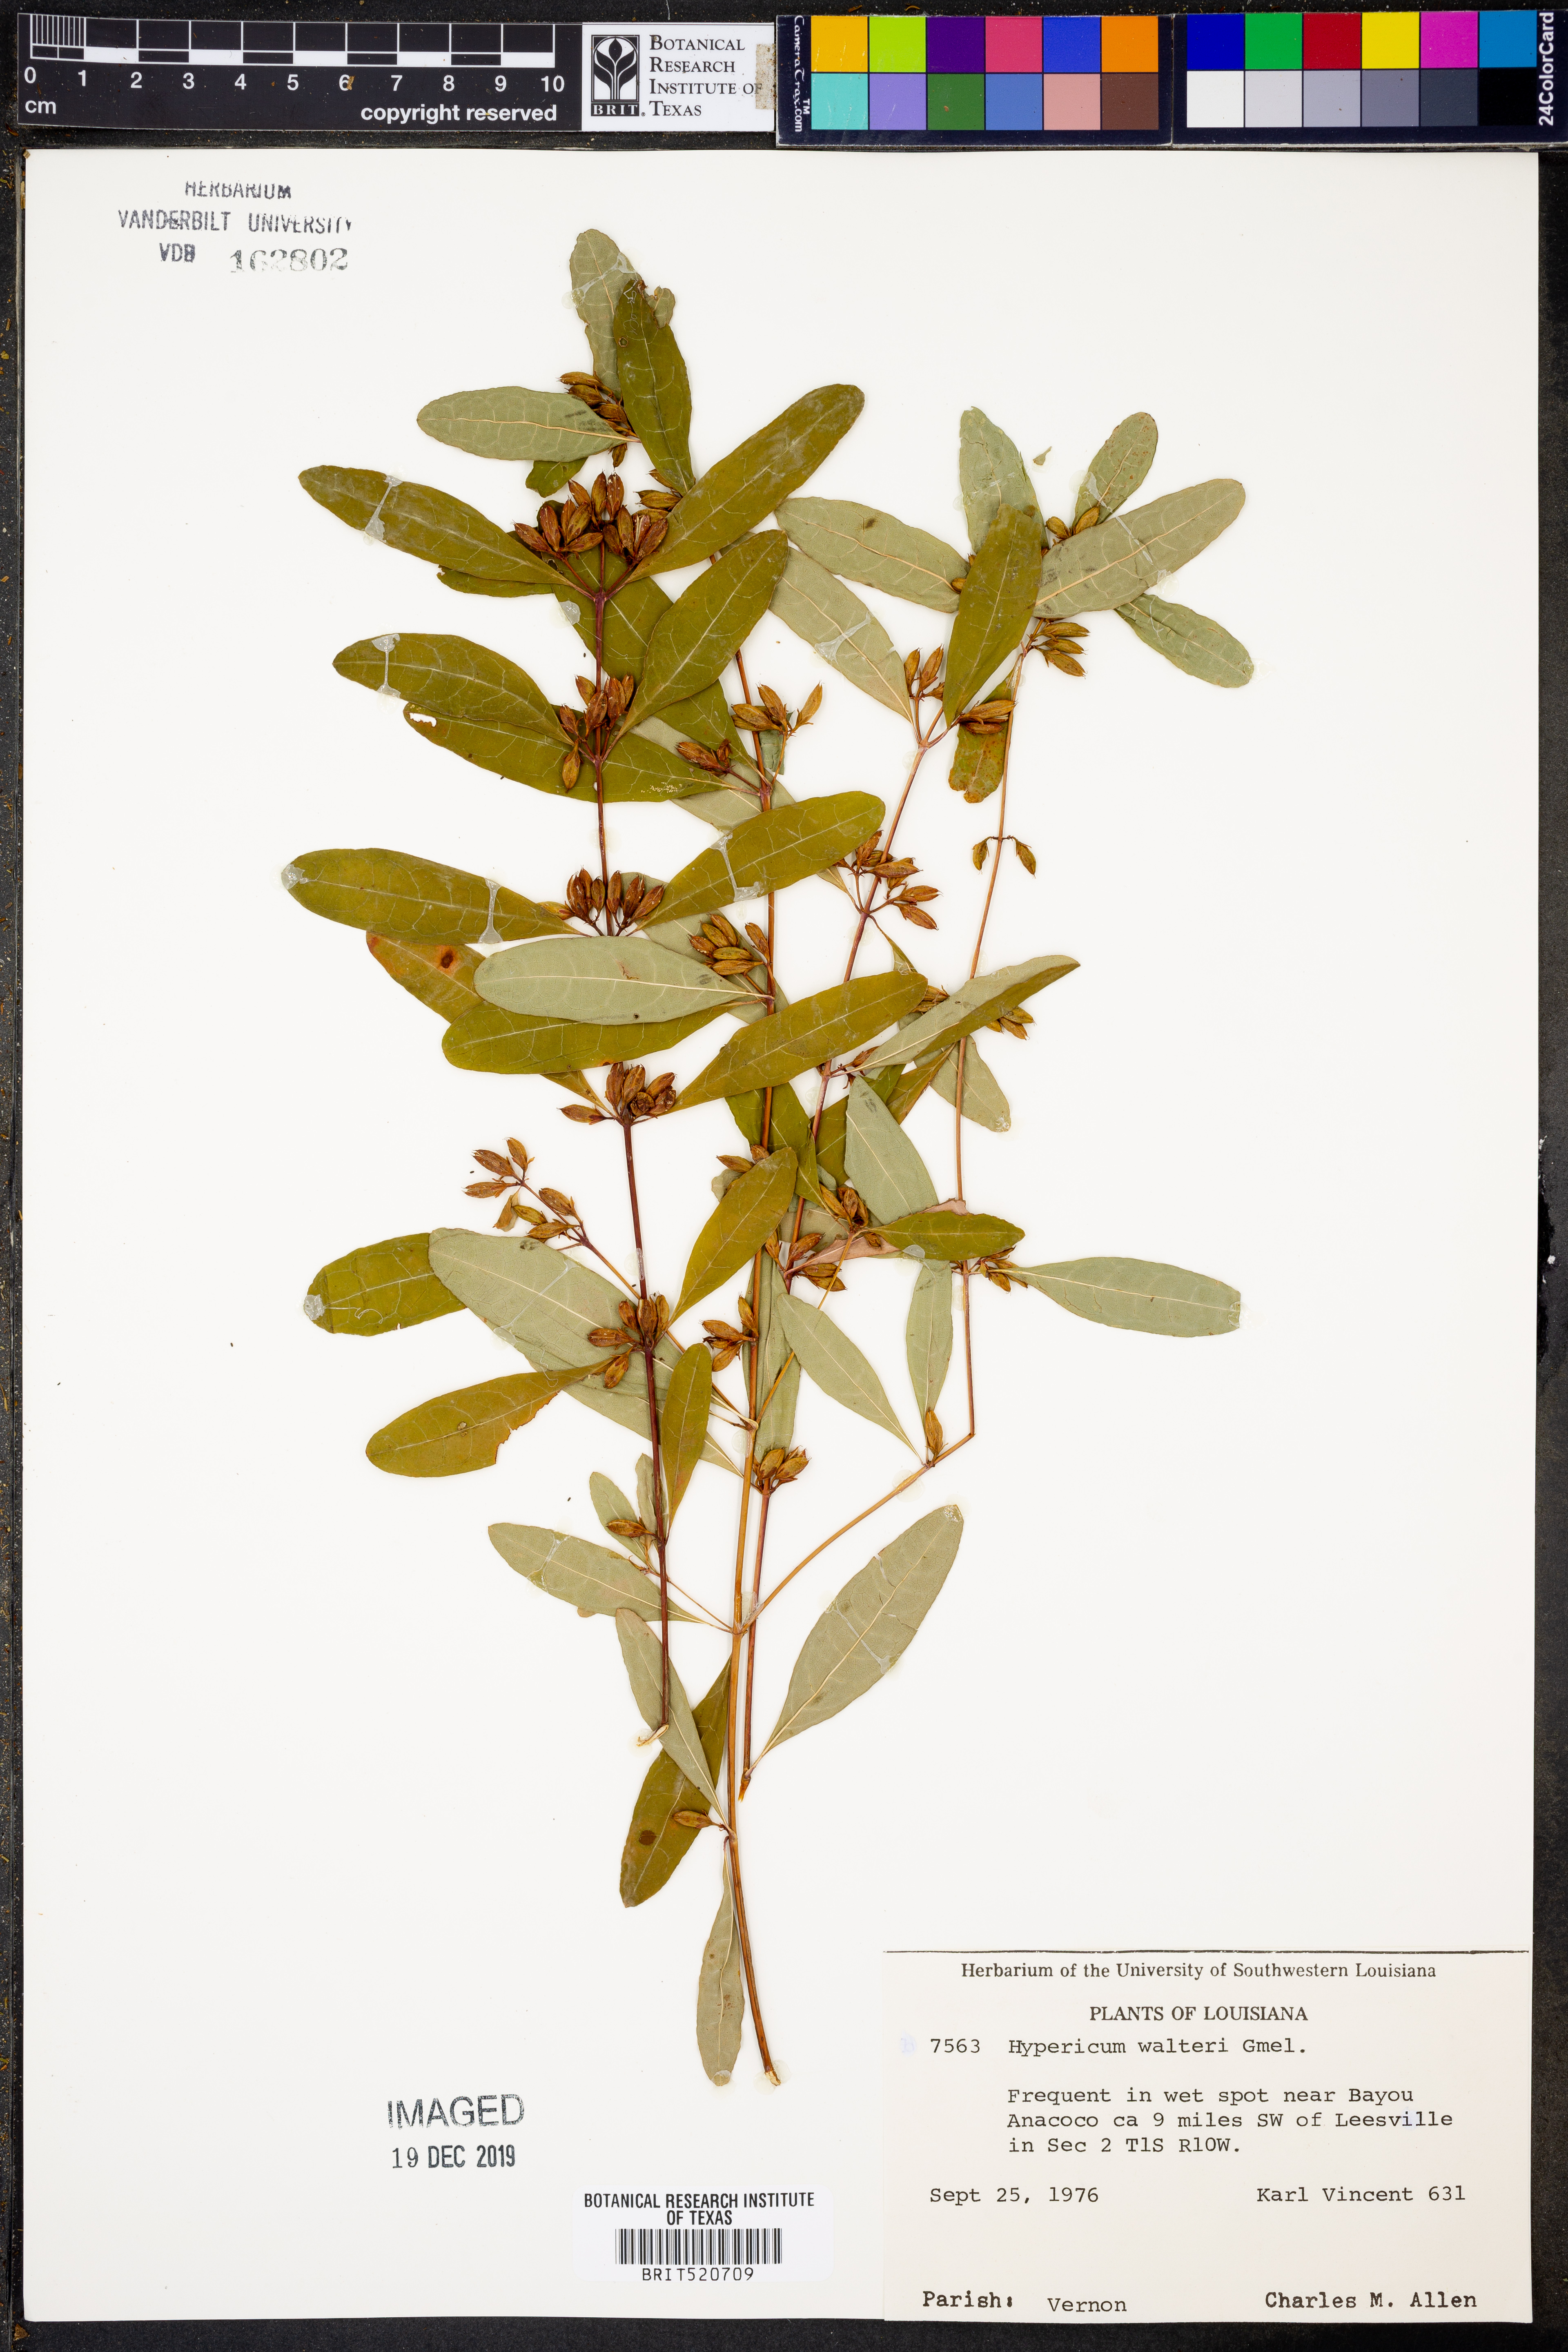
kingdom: Plantae
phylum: Tracheophyta
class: Magnoliopsida
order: Malpighiales
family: Hypericaceae
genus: Triadenum
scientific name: Triadenum walteri
